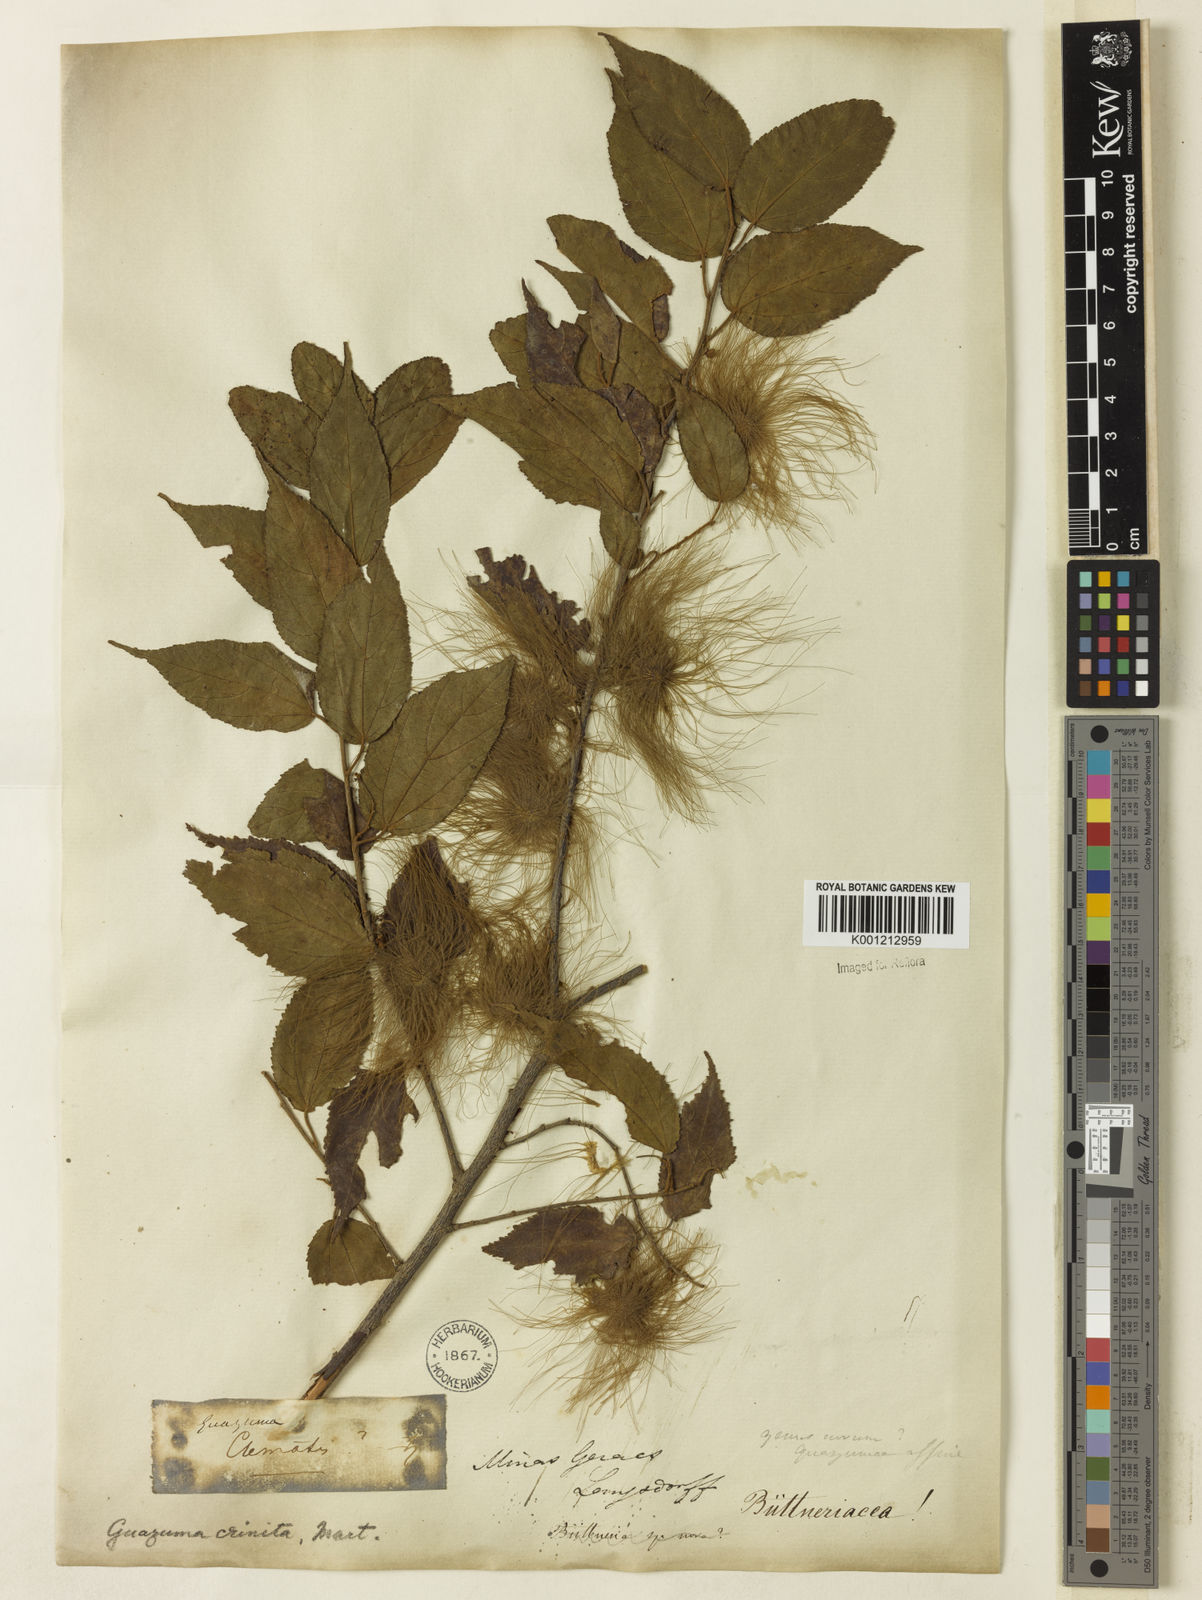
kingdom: Plantae
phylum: Tracheophyta
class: Magnoliopsida
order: Malvales
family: Malvaceae
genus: Guazuma
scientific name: Guazuma crinita
